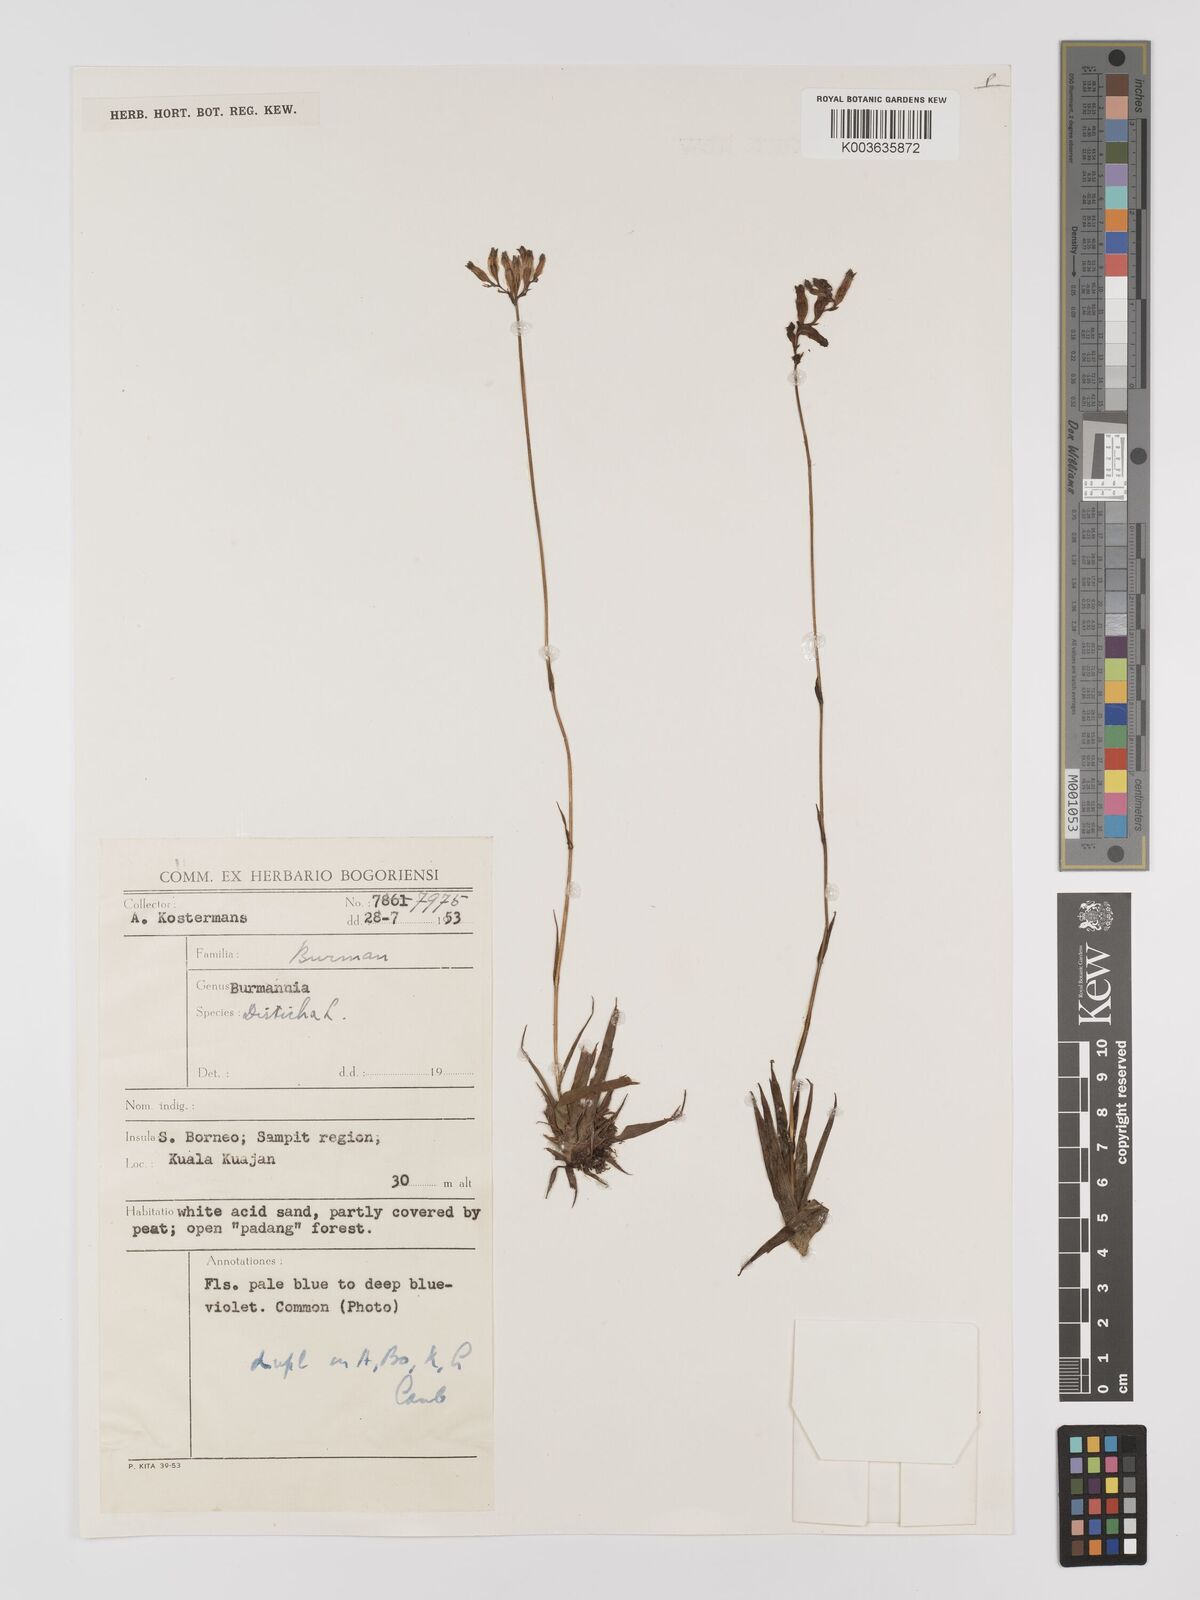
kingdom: Plantae
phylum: Tracheophyta
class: Liliopsida
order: Dioscoreales
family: Burmanniaceae
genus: Burmannia
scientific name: Burmannia disticha
